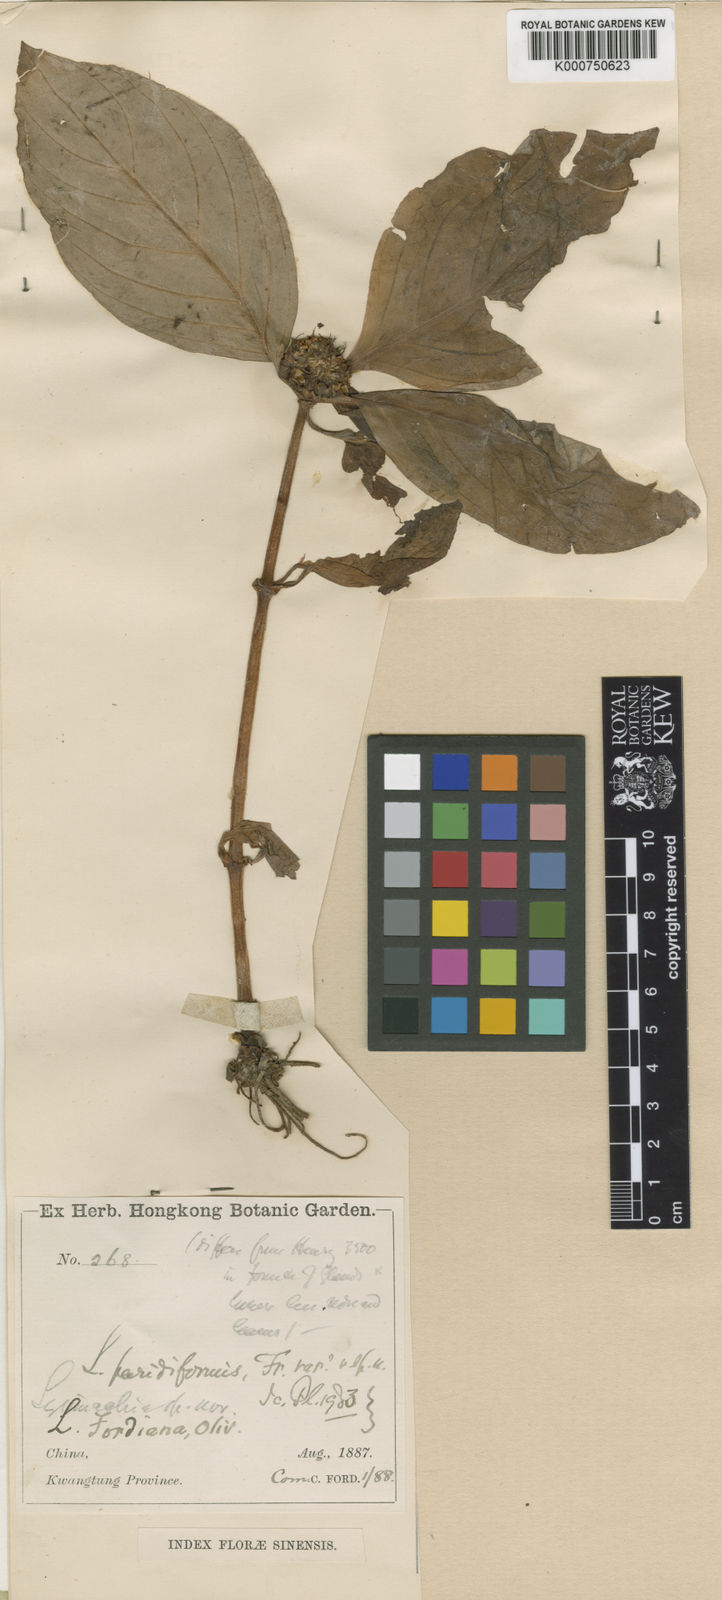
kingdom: Plantae
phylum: Tracheophyta
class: Magnoliopsida
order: Ericales
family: Primulaceae
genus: Lysimachia
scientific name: Lysimachia fordiana
